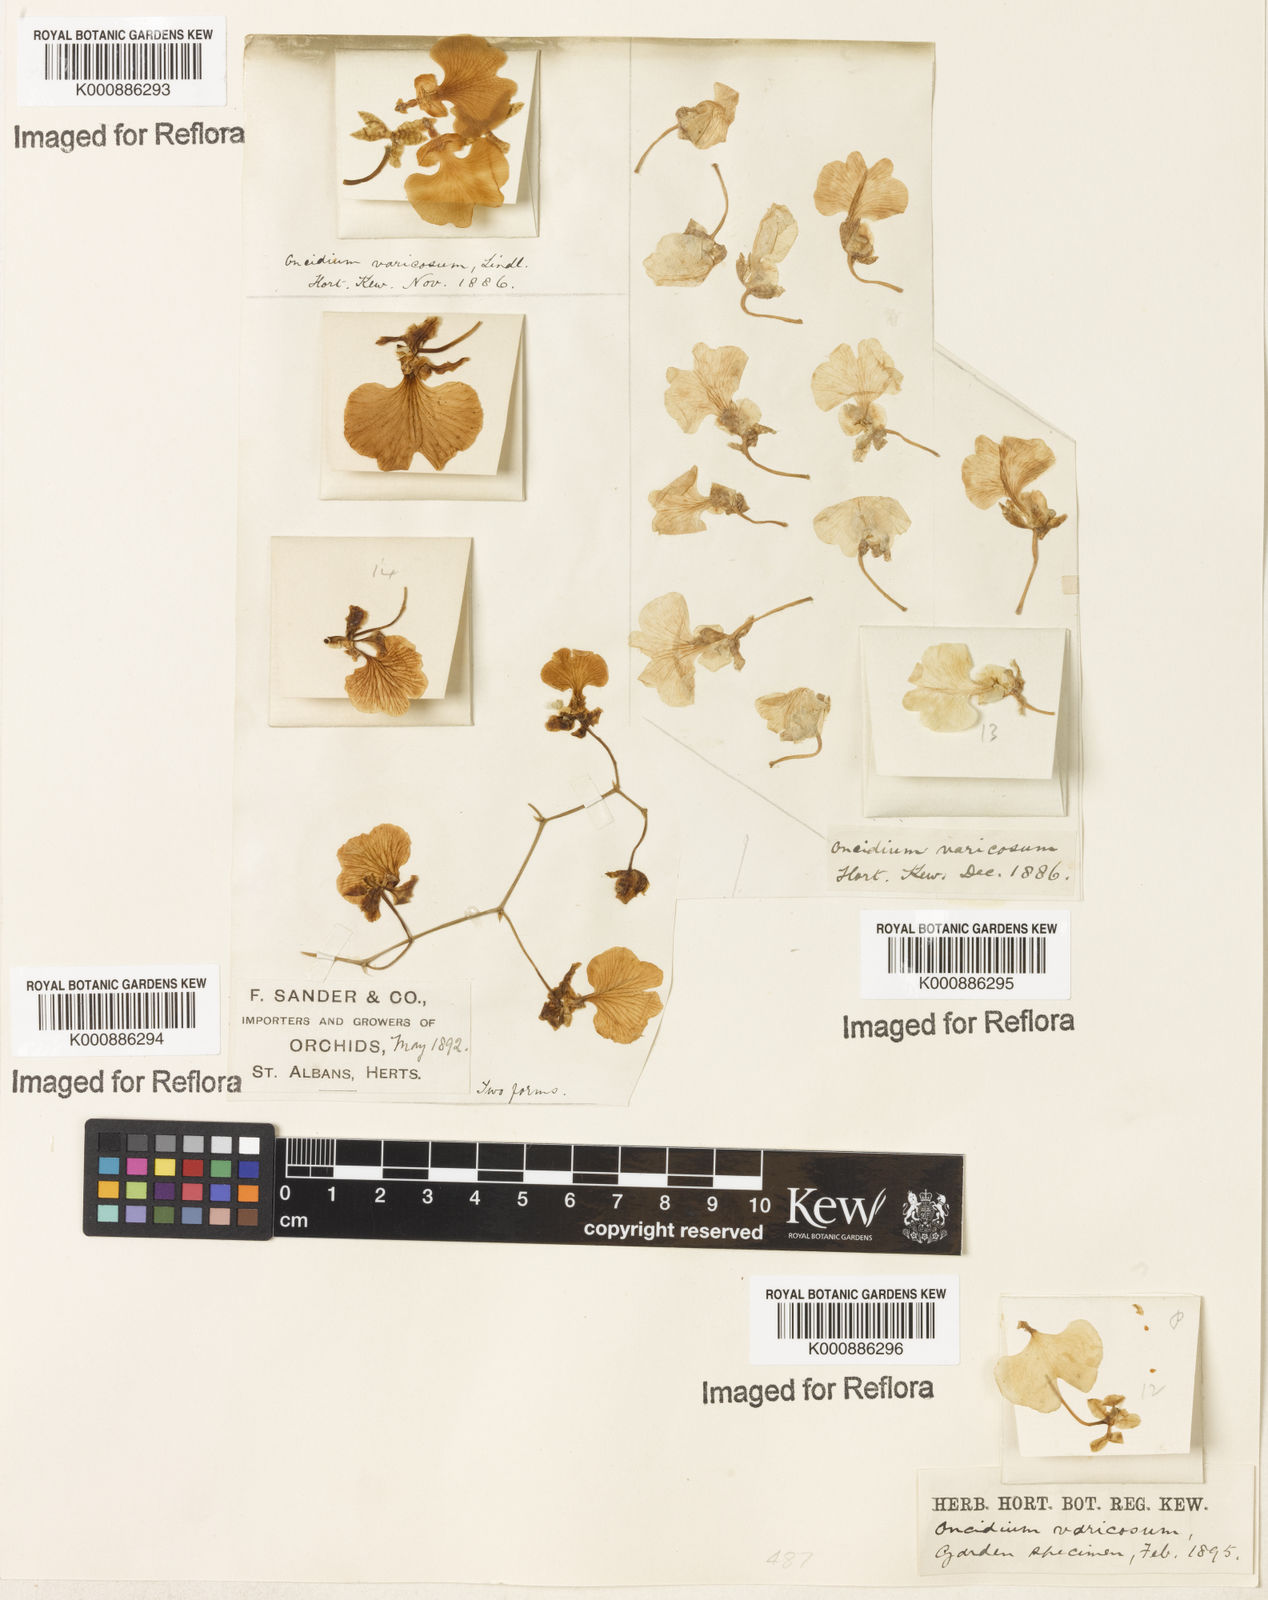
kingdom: Plantae
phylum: Tracheophyta
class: Liliopsida
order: Asparagales
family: Orchidaceae
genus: Gomesa
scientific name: Gomesa bifolia
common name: Dancing ladies
